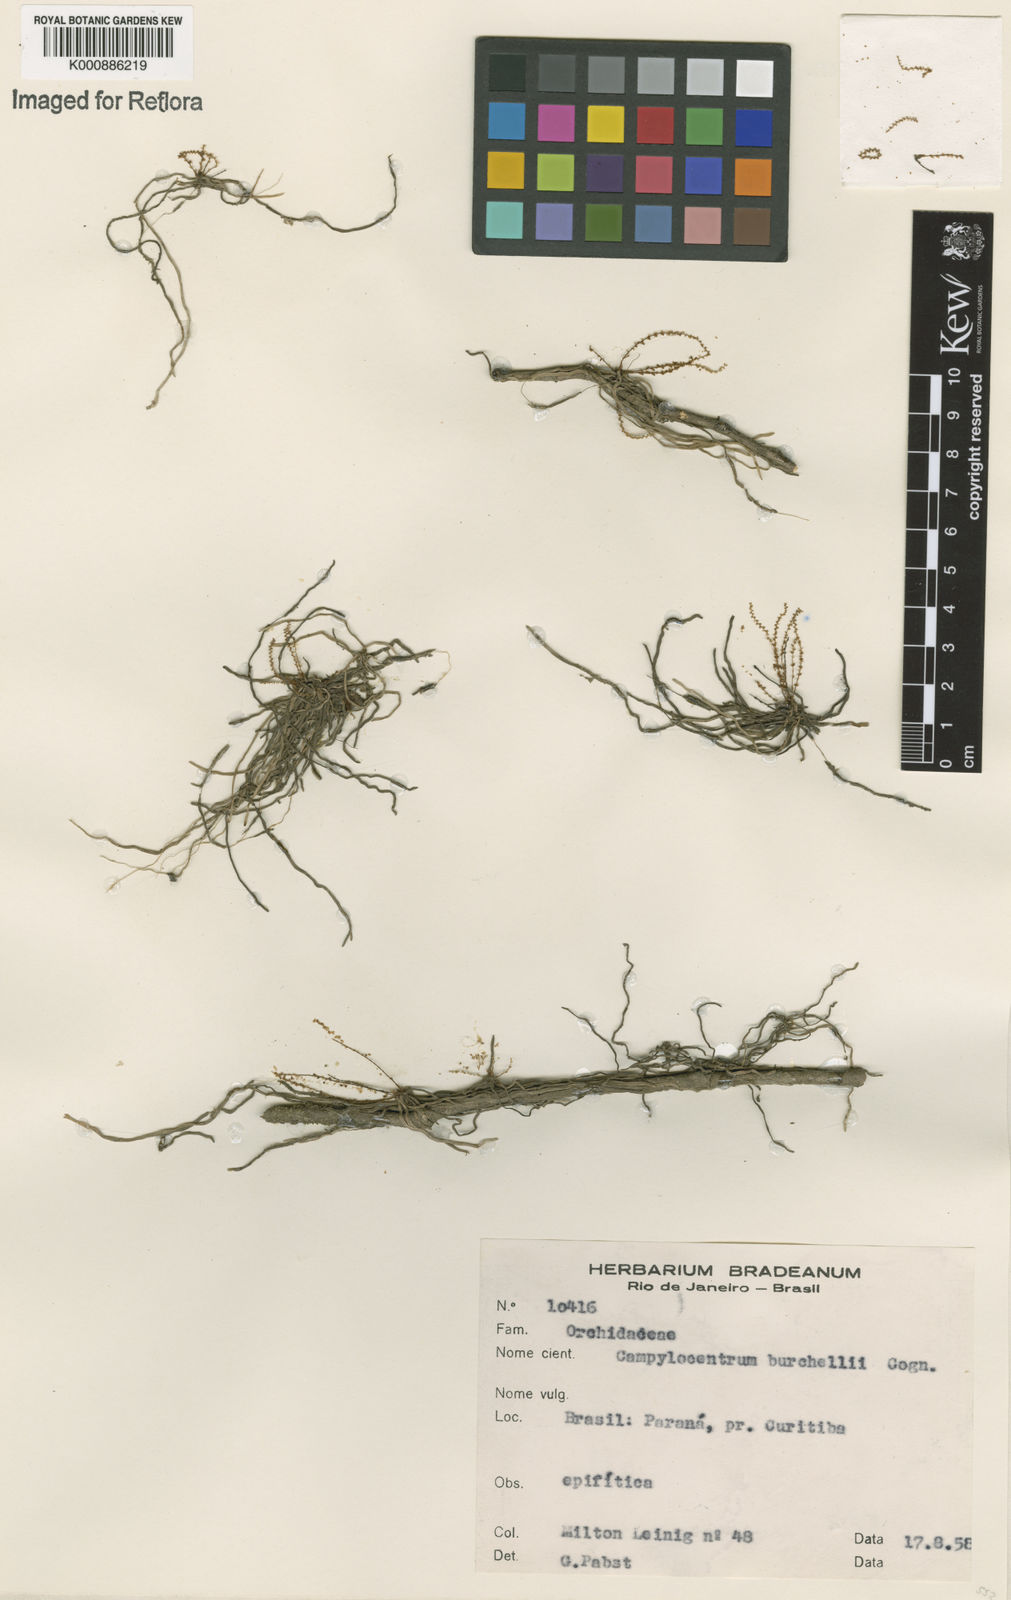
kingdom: Plantae
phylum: Tracheophyta
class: Liliopsida
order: Asparagales
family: Orchidaceae
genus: Campylocentrum
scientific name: Campylocentrum grisebachii
